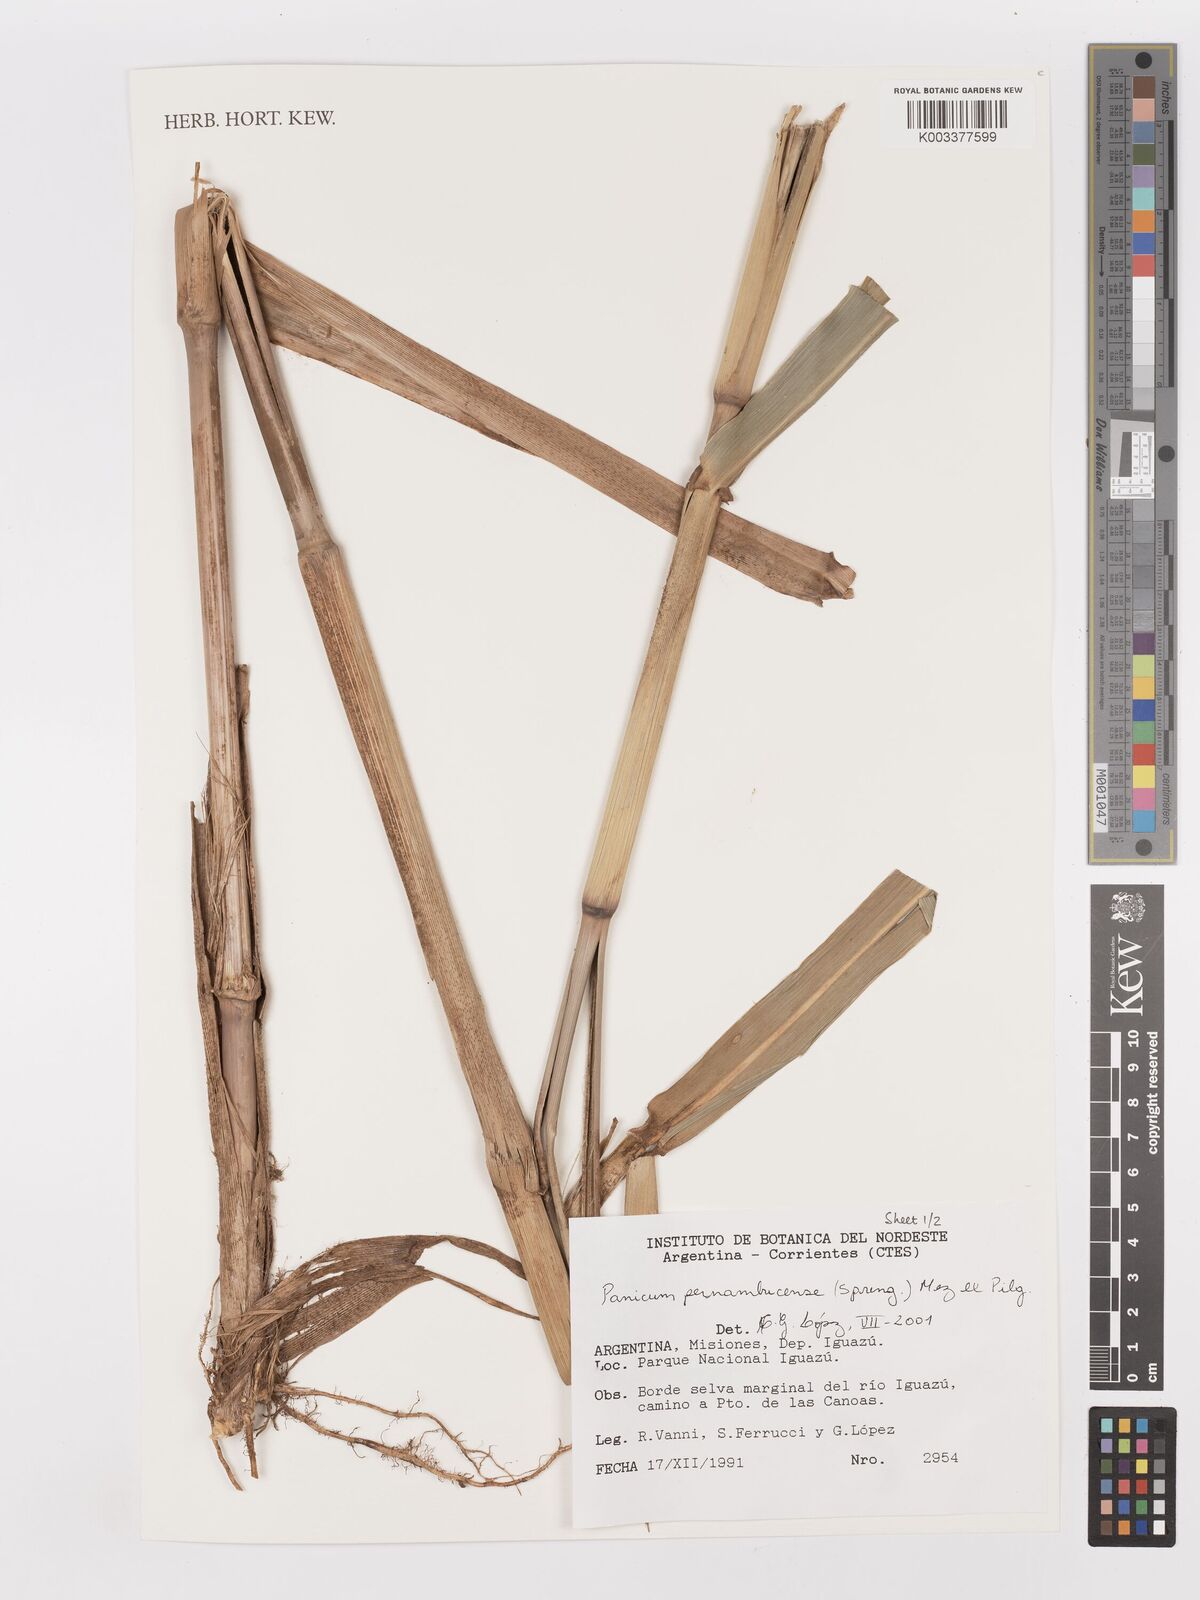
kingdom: Plantae
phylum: Tracheophyta
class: Liliopsida
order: Poales
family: Poaceae
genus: Hymenachne
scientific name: Hymenachne pernambucensis
